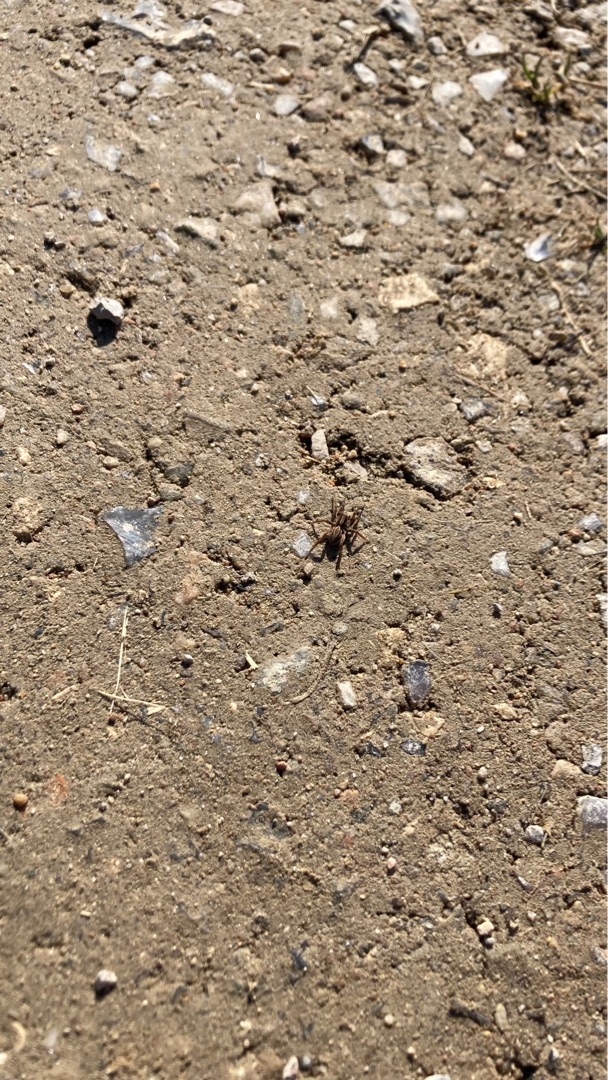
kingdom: Animalia
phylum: Arthropoda
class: Arachnida
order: Araneae
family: Lycosidae
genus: Alopecosa
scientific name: Alopecosa
